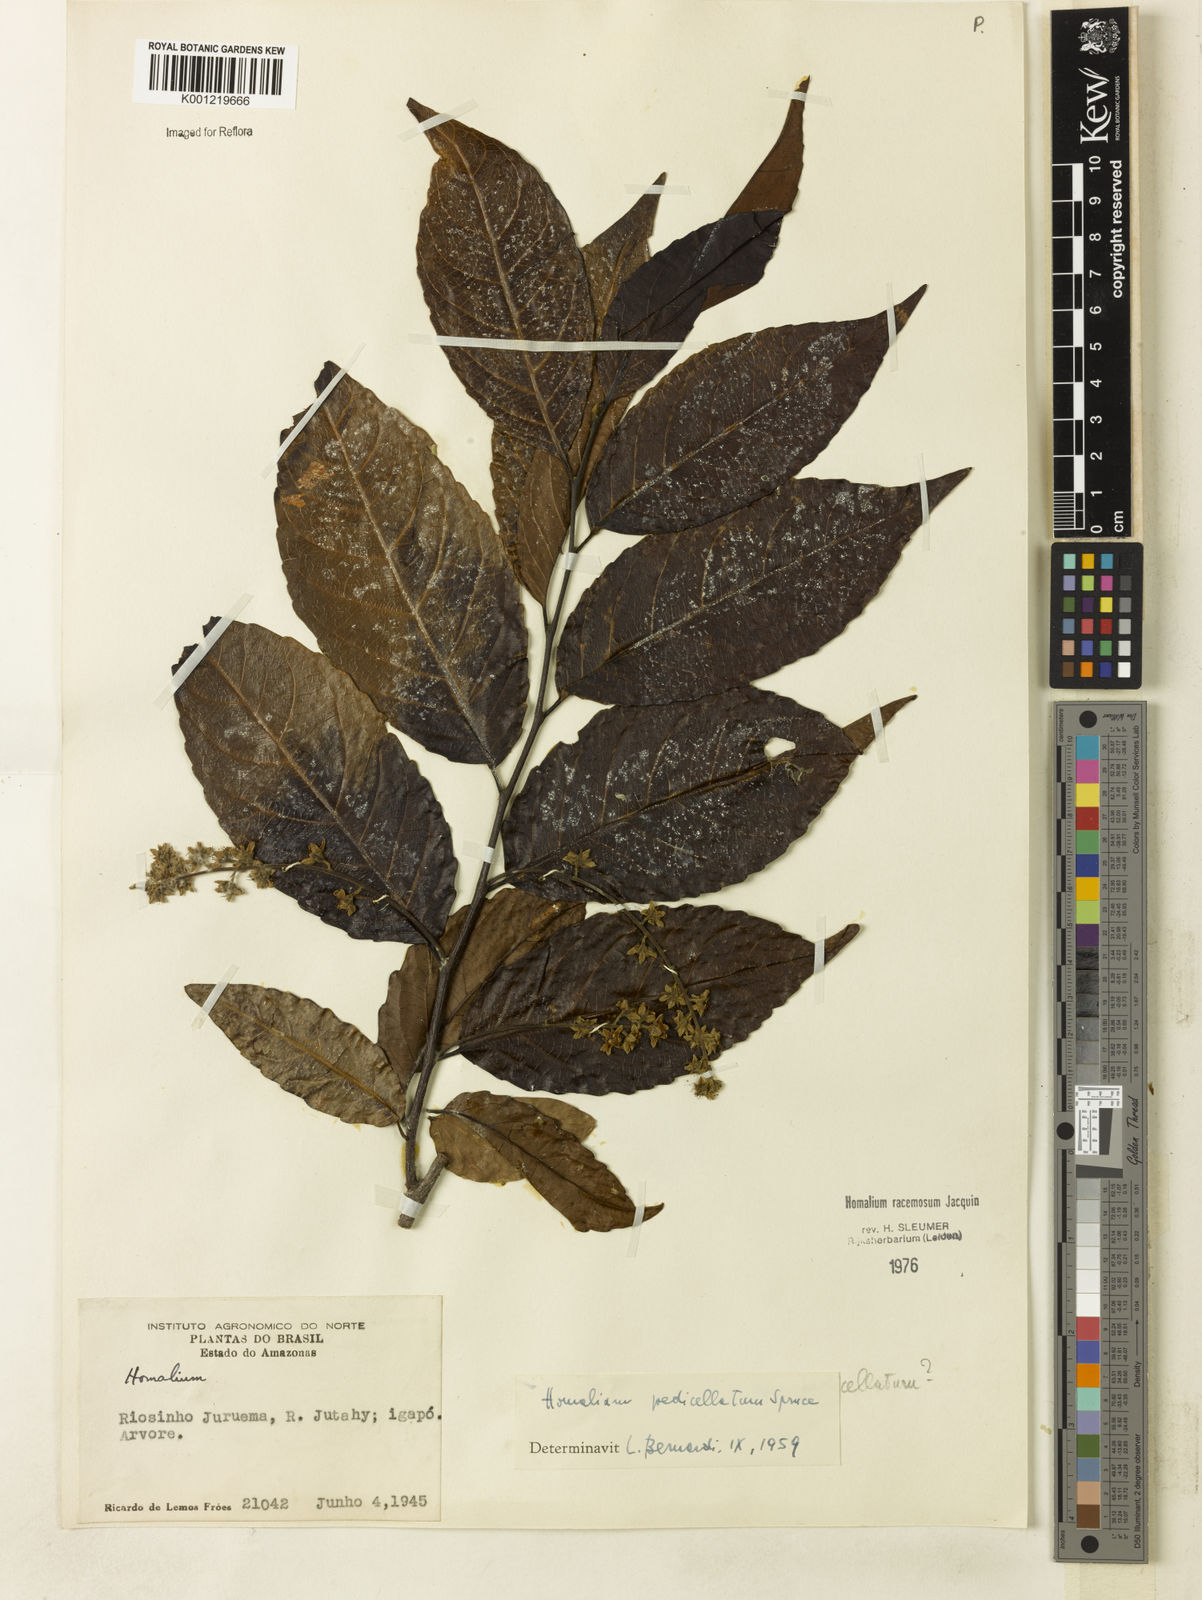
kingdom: Plantae
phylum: Tracheophyta
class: Magnoliopsida
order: Malpighiales
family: Salicaceae
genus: Homalium
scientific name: Homalium racemosum
